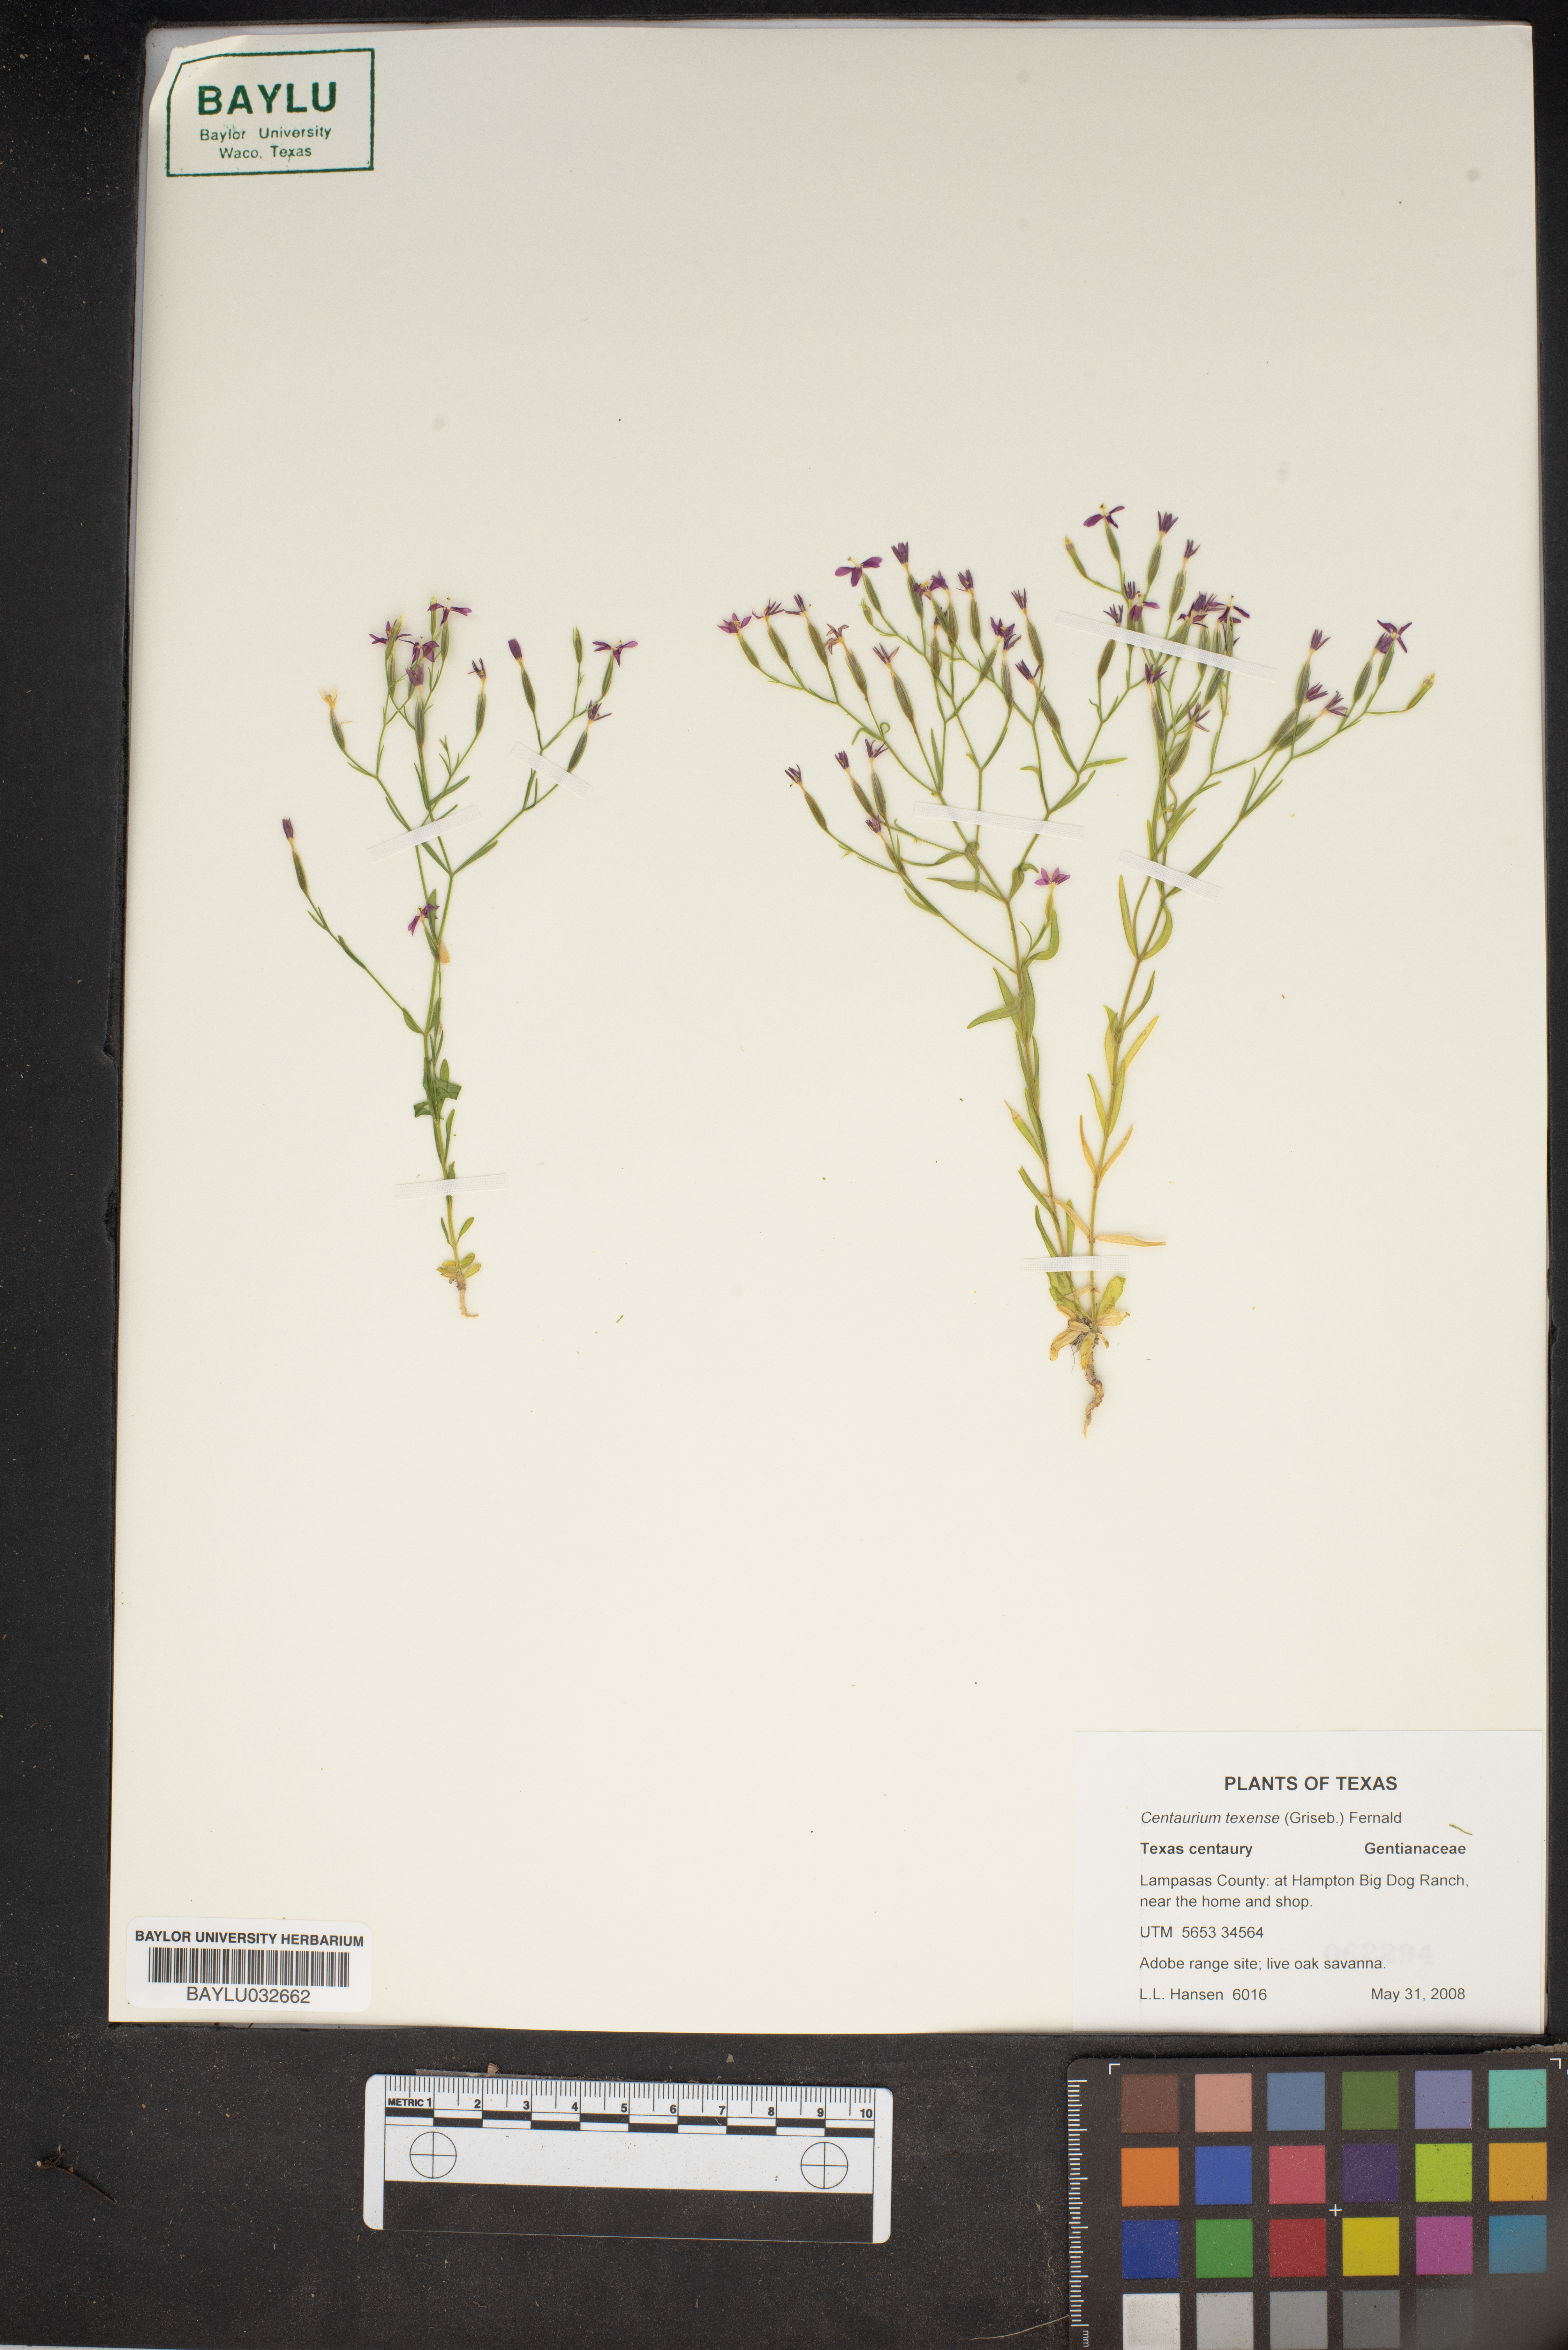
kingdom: Plantae
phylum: Tracheophyta
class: Magnoliopsida
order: Gentianales
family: Gentianaceae
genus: Zeltnera
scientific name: Zeltnera texensis
